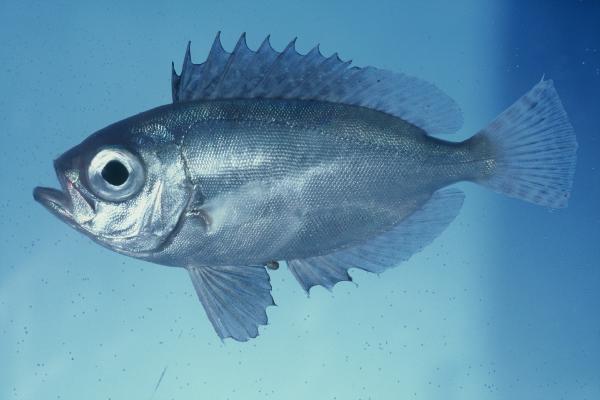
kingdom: Animalia
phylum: Chordata
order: Perciformes
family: Priacanthidae
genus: Priacanthus
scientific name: Priacanthus
